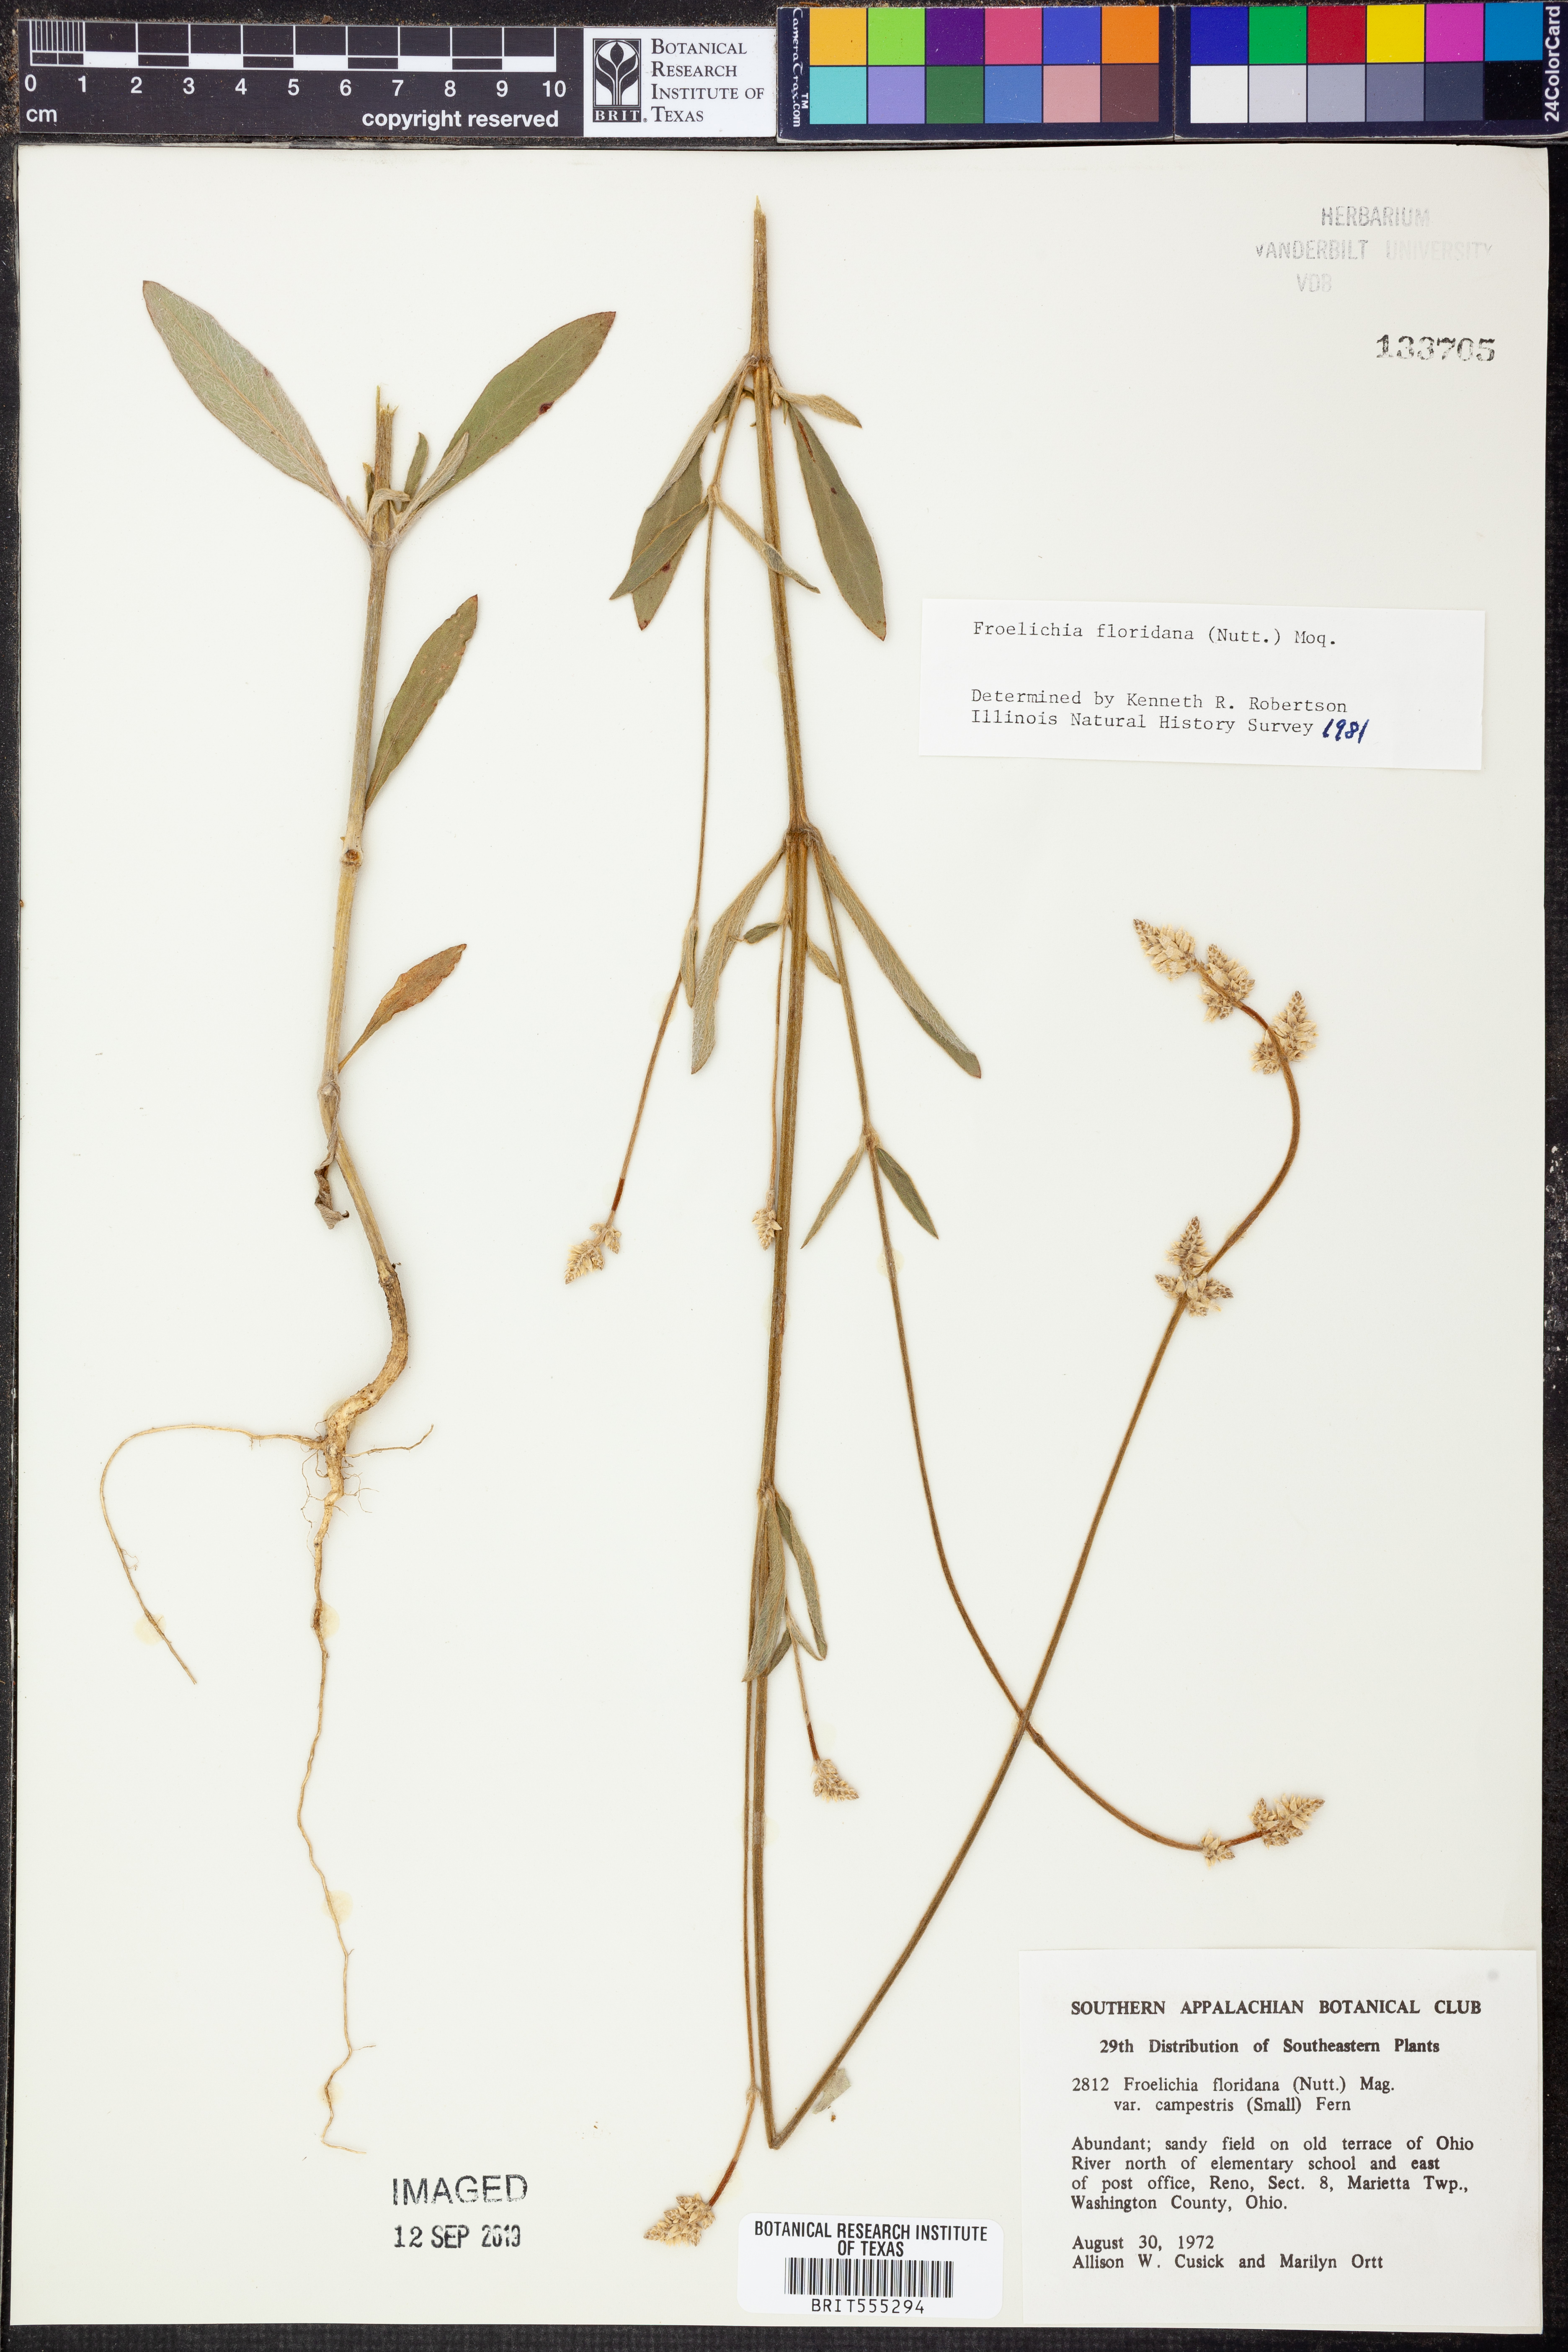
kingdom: Plantae
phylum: Tracheophyta
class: Magnoliopsida
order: Caryophyllales
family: Amaranthaceae
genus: Froelichia
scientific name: Froelichia floridana
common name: Florida snake-cotton
